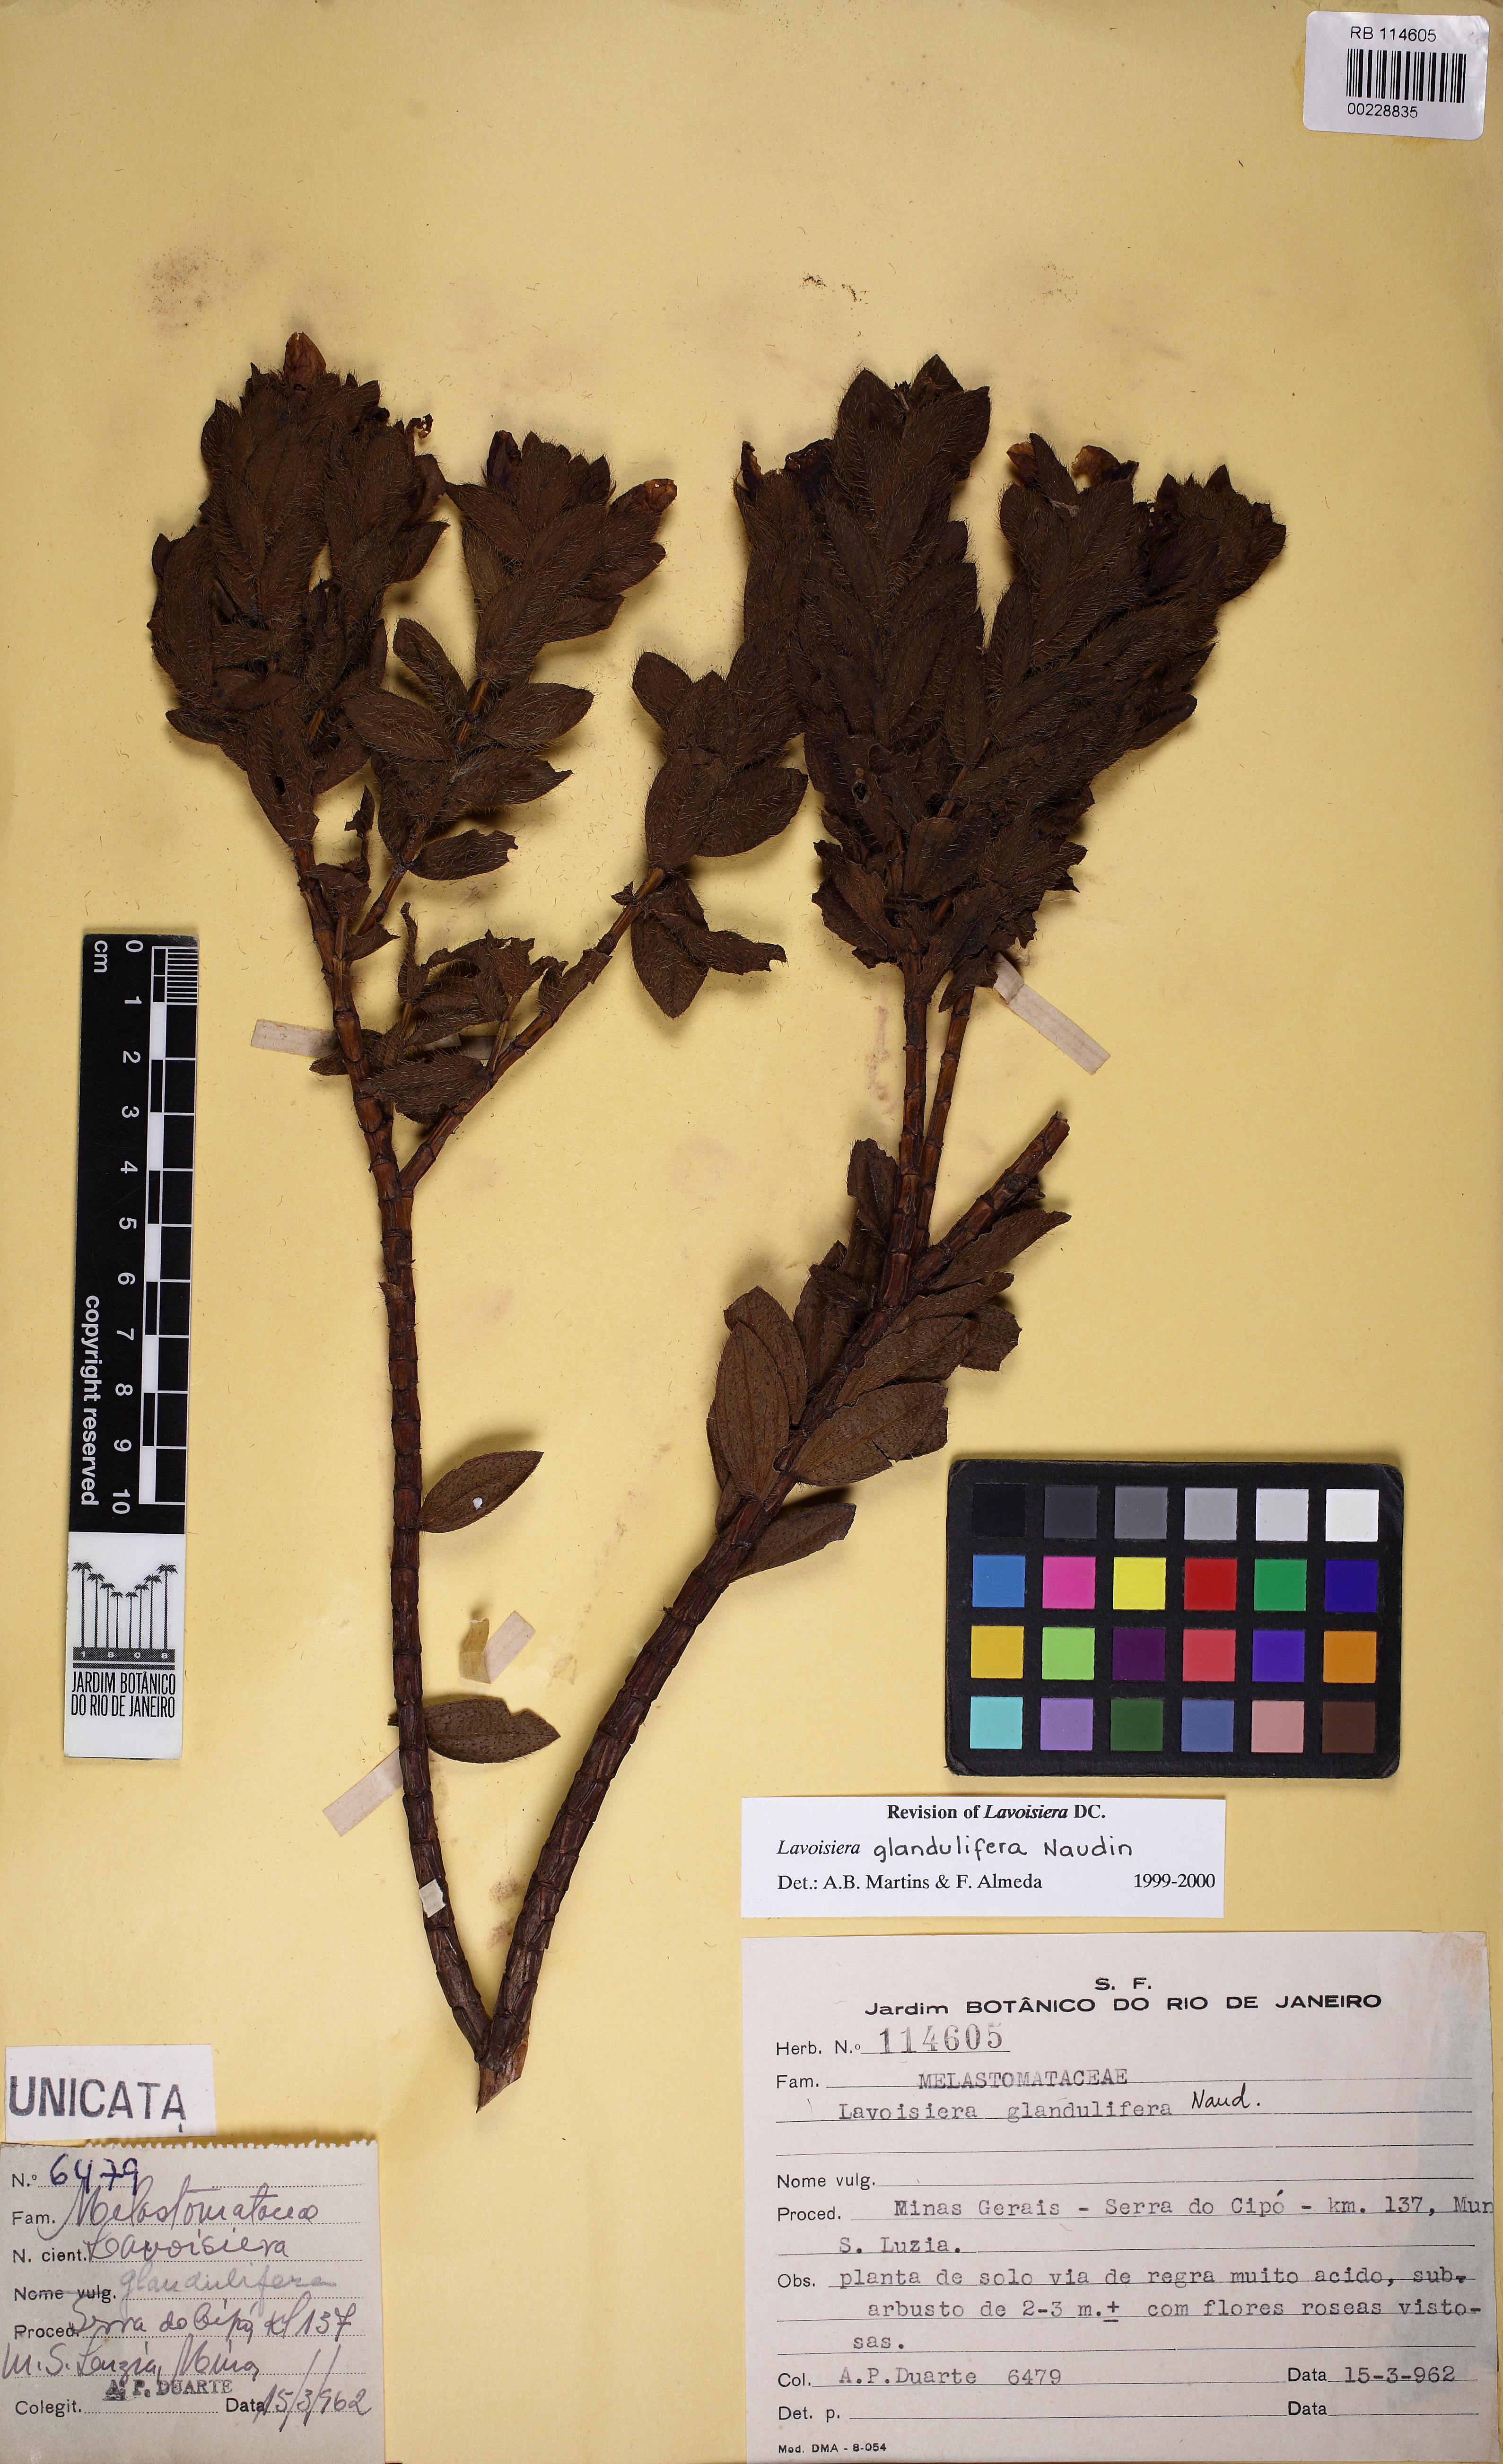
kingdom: Plantae
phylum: Tracheophyta
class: Magnoliopsida
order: Myrtales
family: Melastomataceae
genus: Microlicia
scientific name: Microlicia glandulifolia
